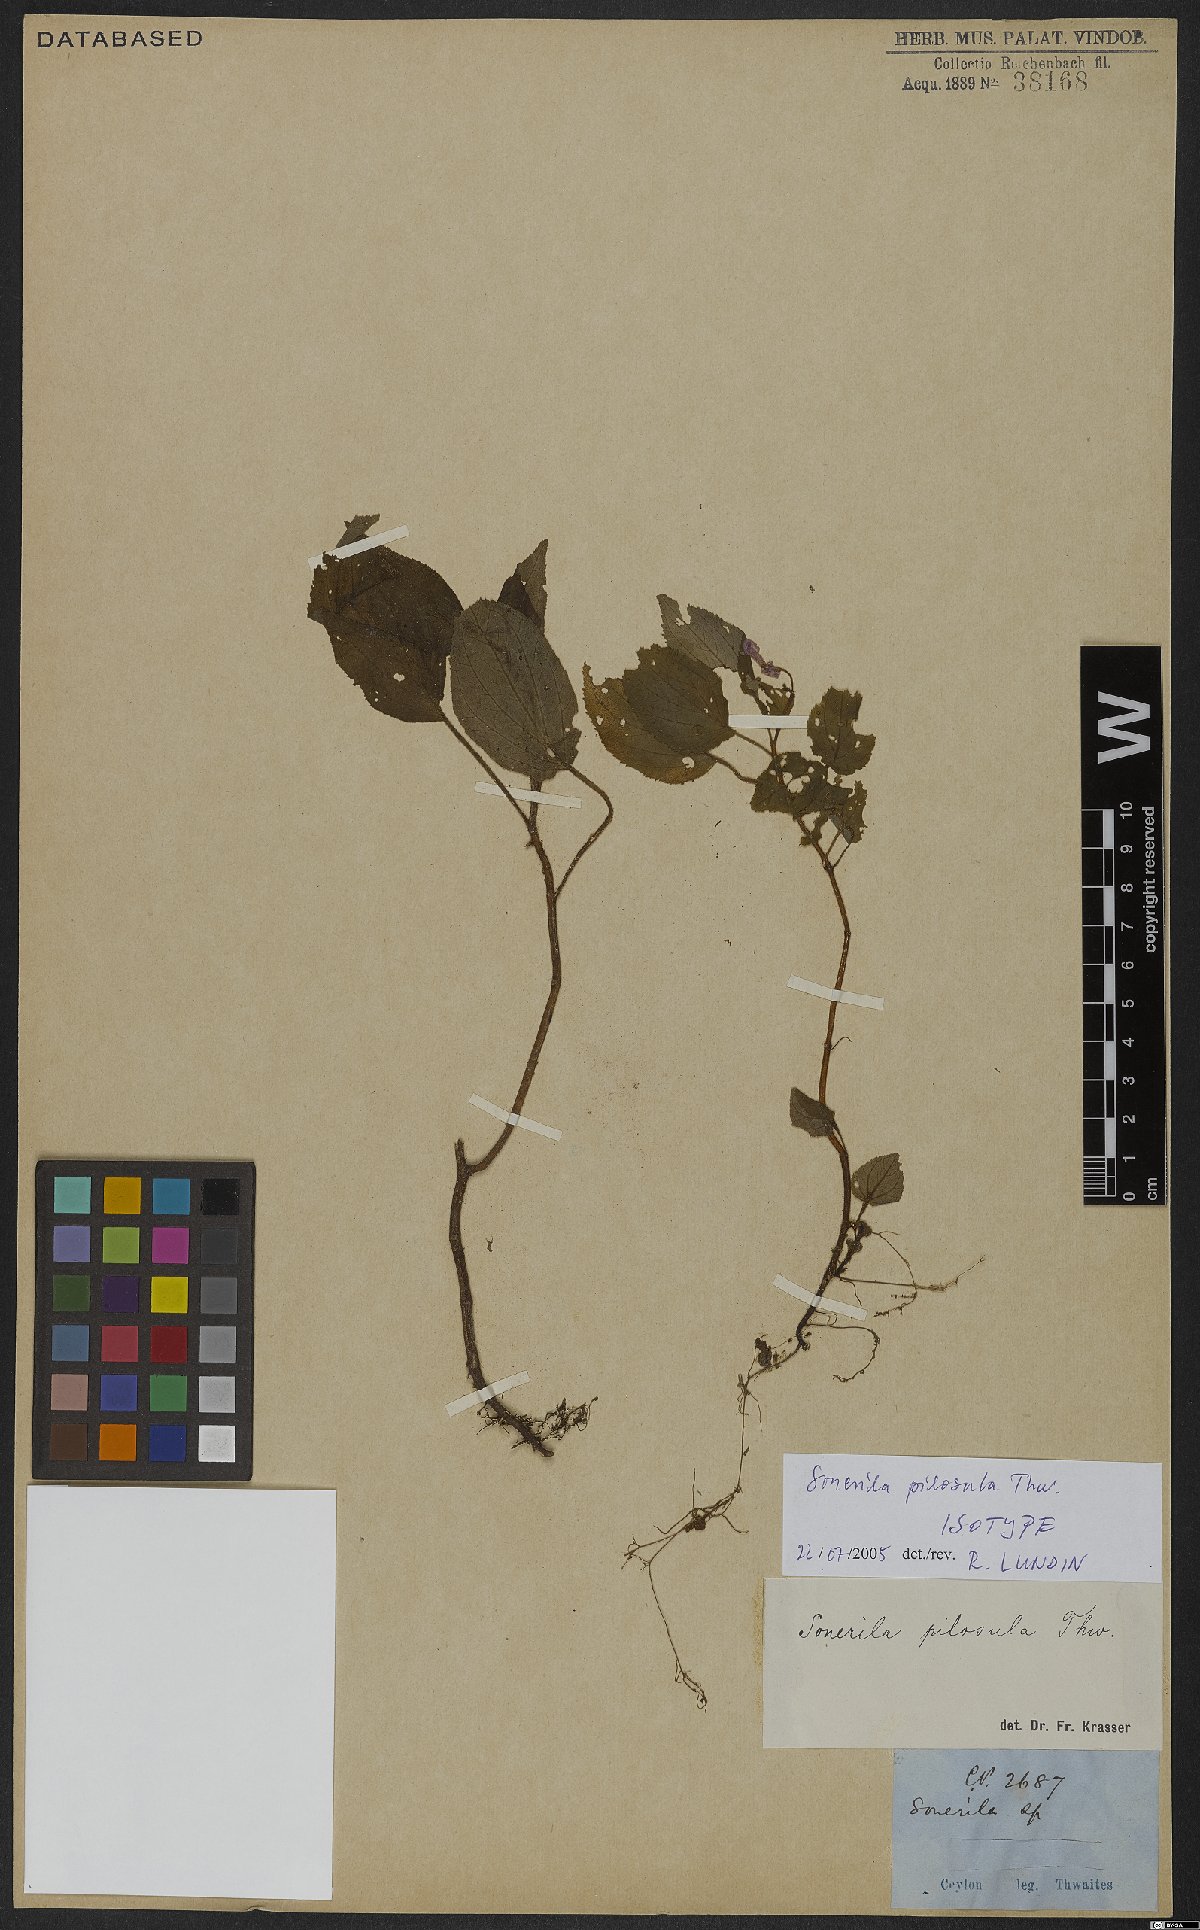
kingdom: Plantae
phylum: Tracheophyta
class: Magnoliopsida
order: Myrtales
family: Melastomataceae
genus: Sonerila
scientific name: Sonerila pilosula
